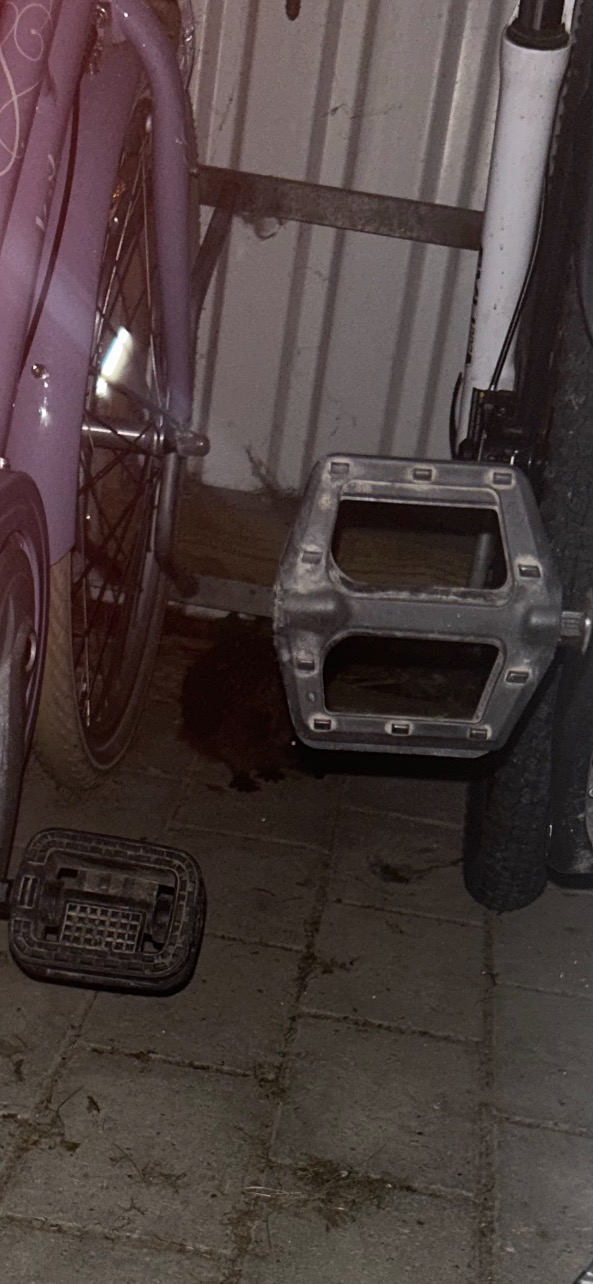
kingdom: Animalia
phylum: Chordata
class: Mammalia
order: Erinaceomorpha
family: Erinaceidae
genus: Erinaceus
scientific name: Erinaceus europaeus
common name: Pindsvin
